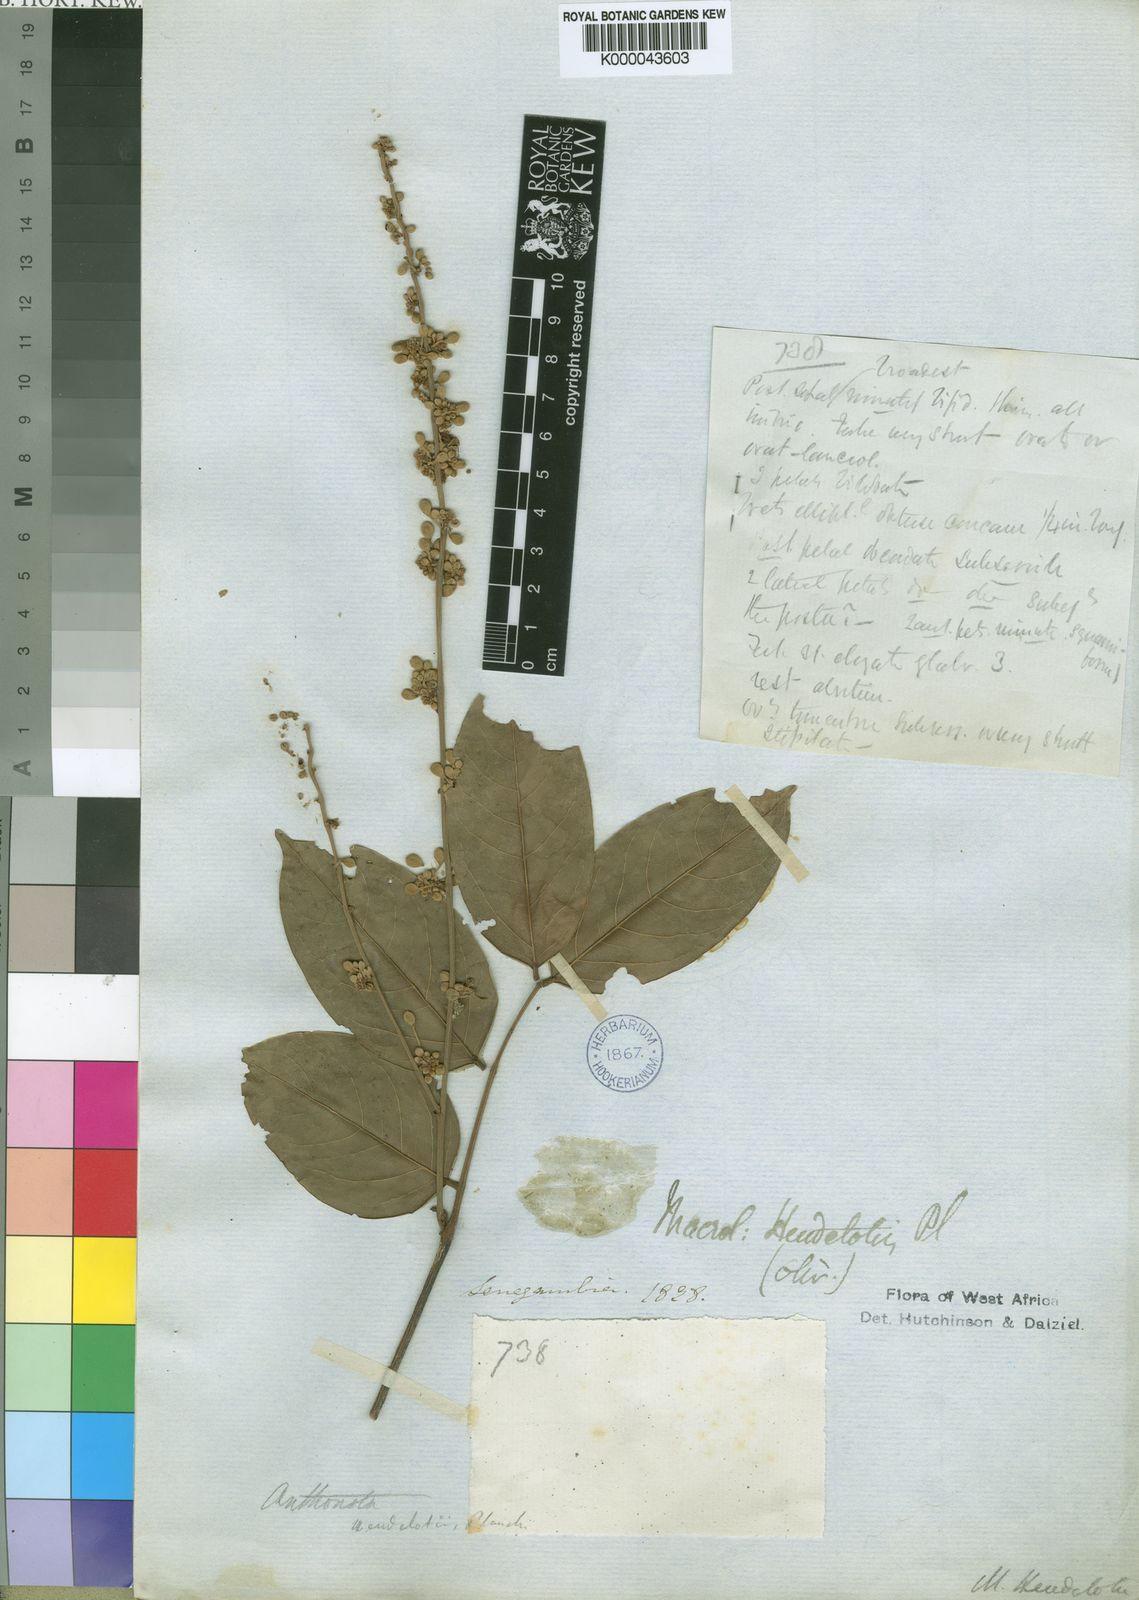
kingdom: Plantae
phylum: Tracheophyta
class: Magnoliopsida
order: Fabales
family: Fabaceae
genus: Englerodendron
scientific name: Englerodendron explicans
